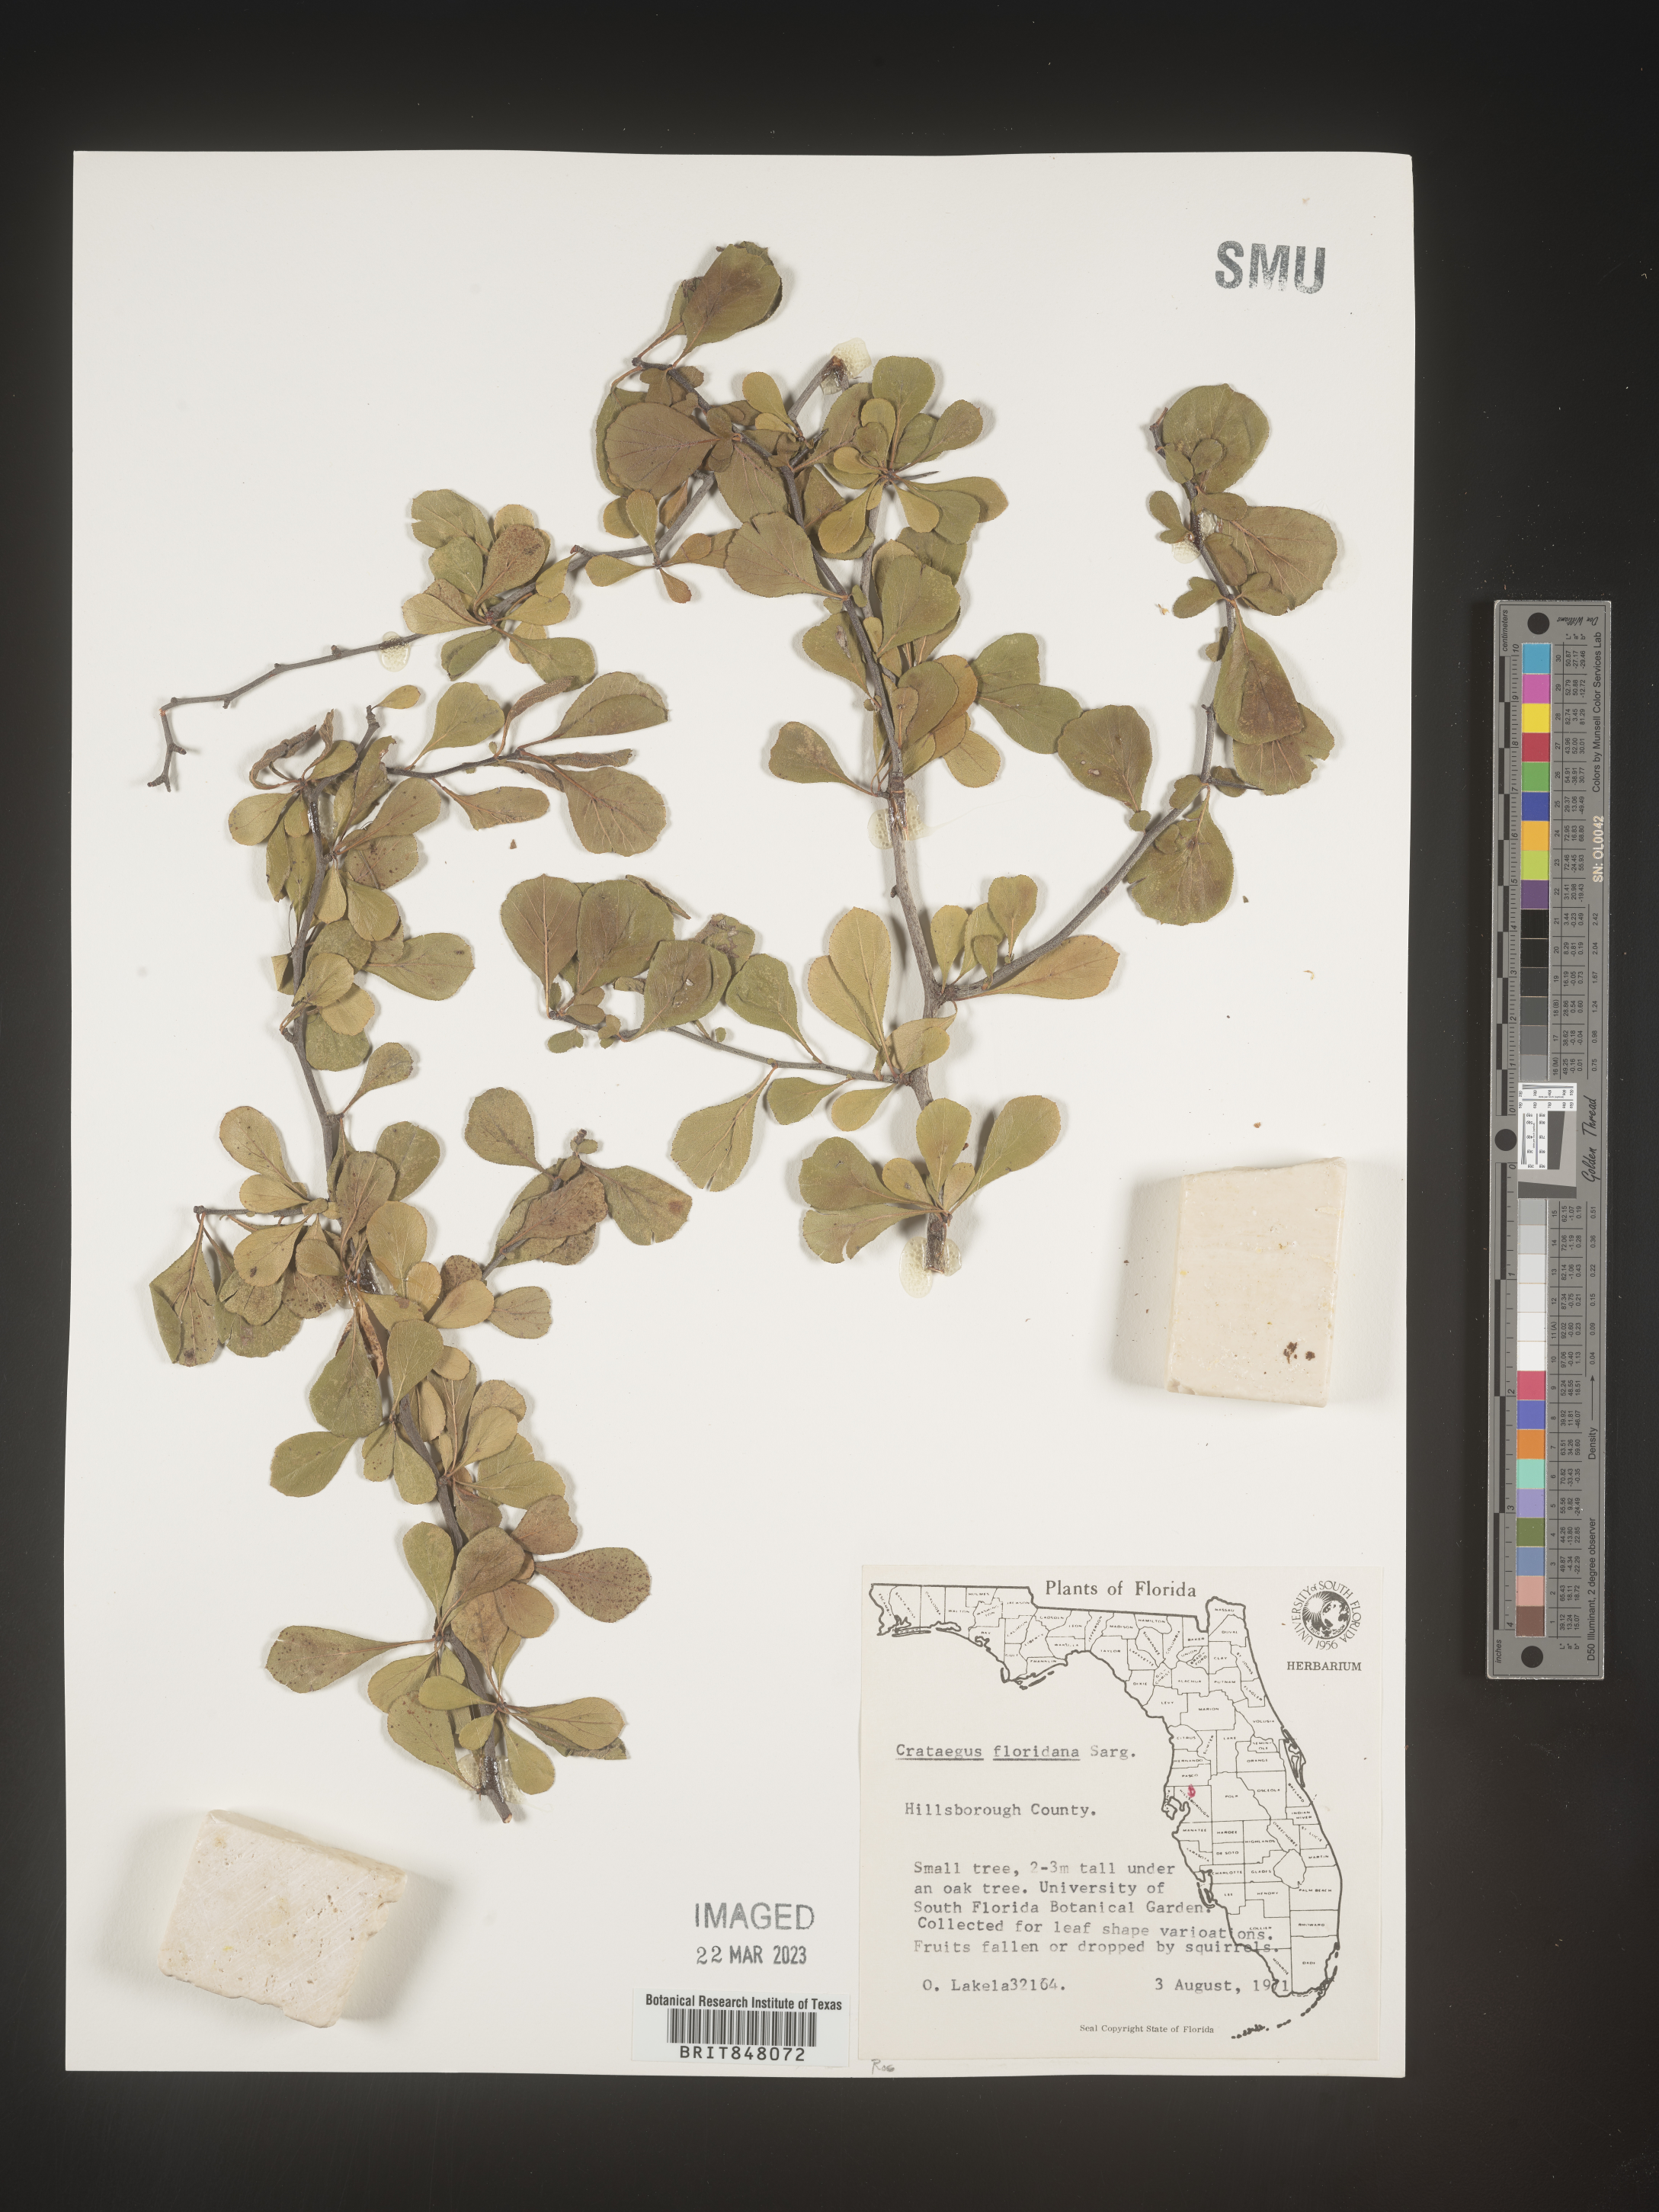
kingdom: Plantae
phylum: Tracheophyta
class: Magnoliopsida
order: Rosales
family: Rosaceae
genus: Crataegus
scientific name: Crataegus
